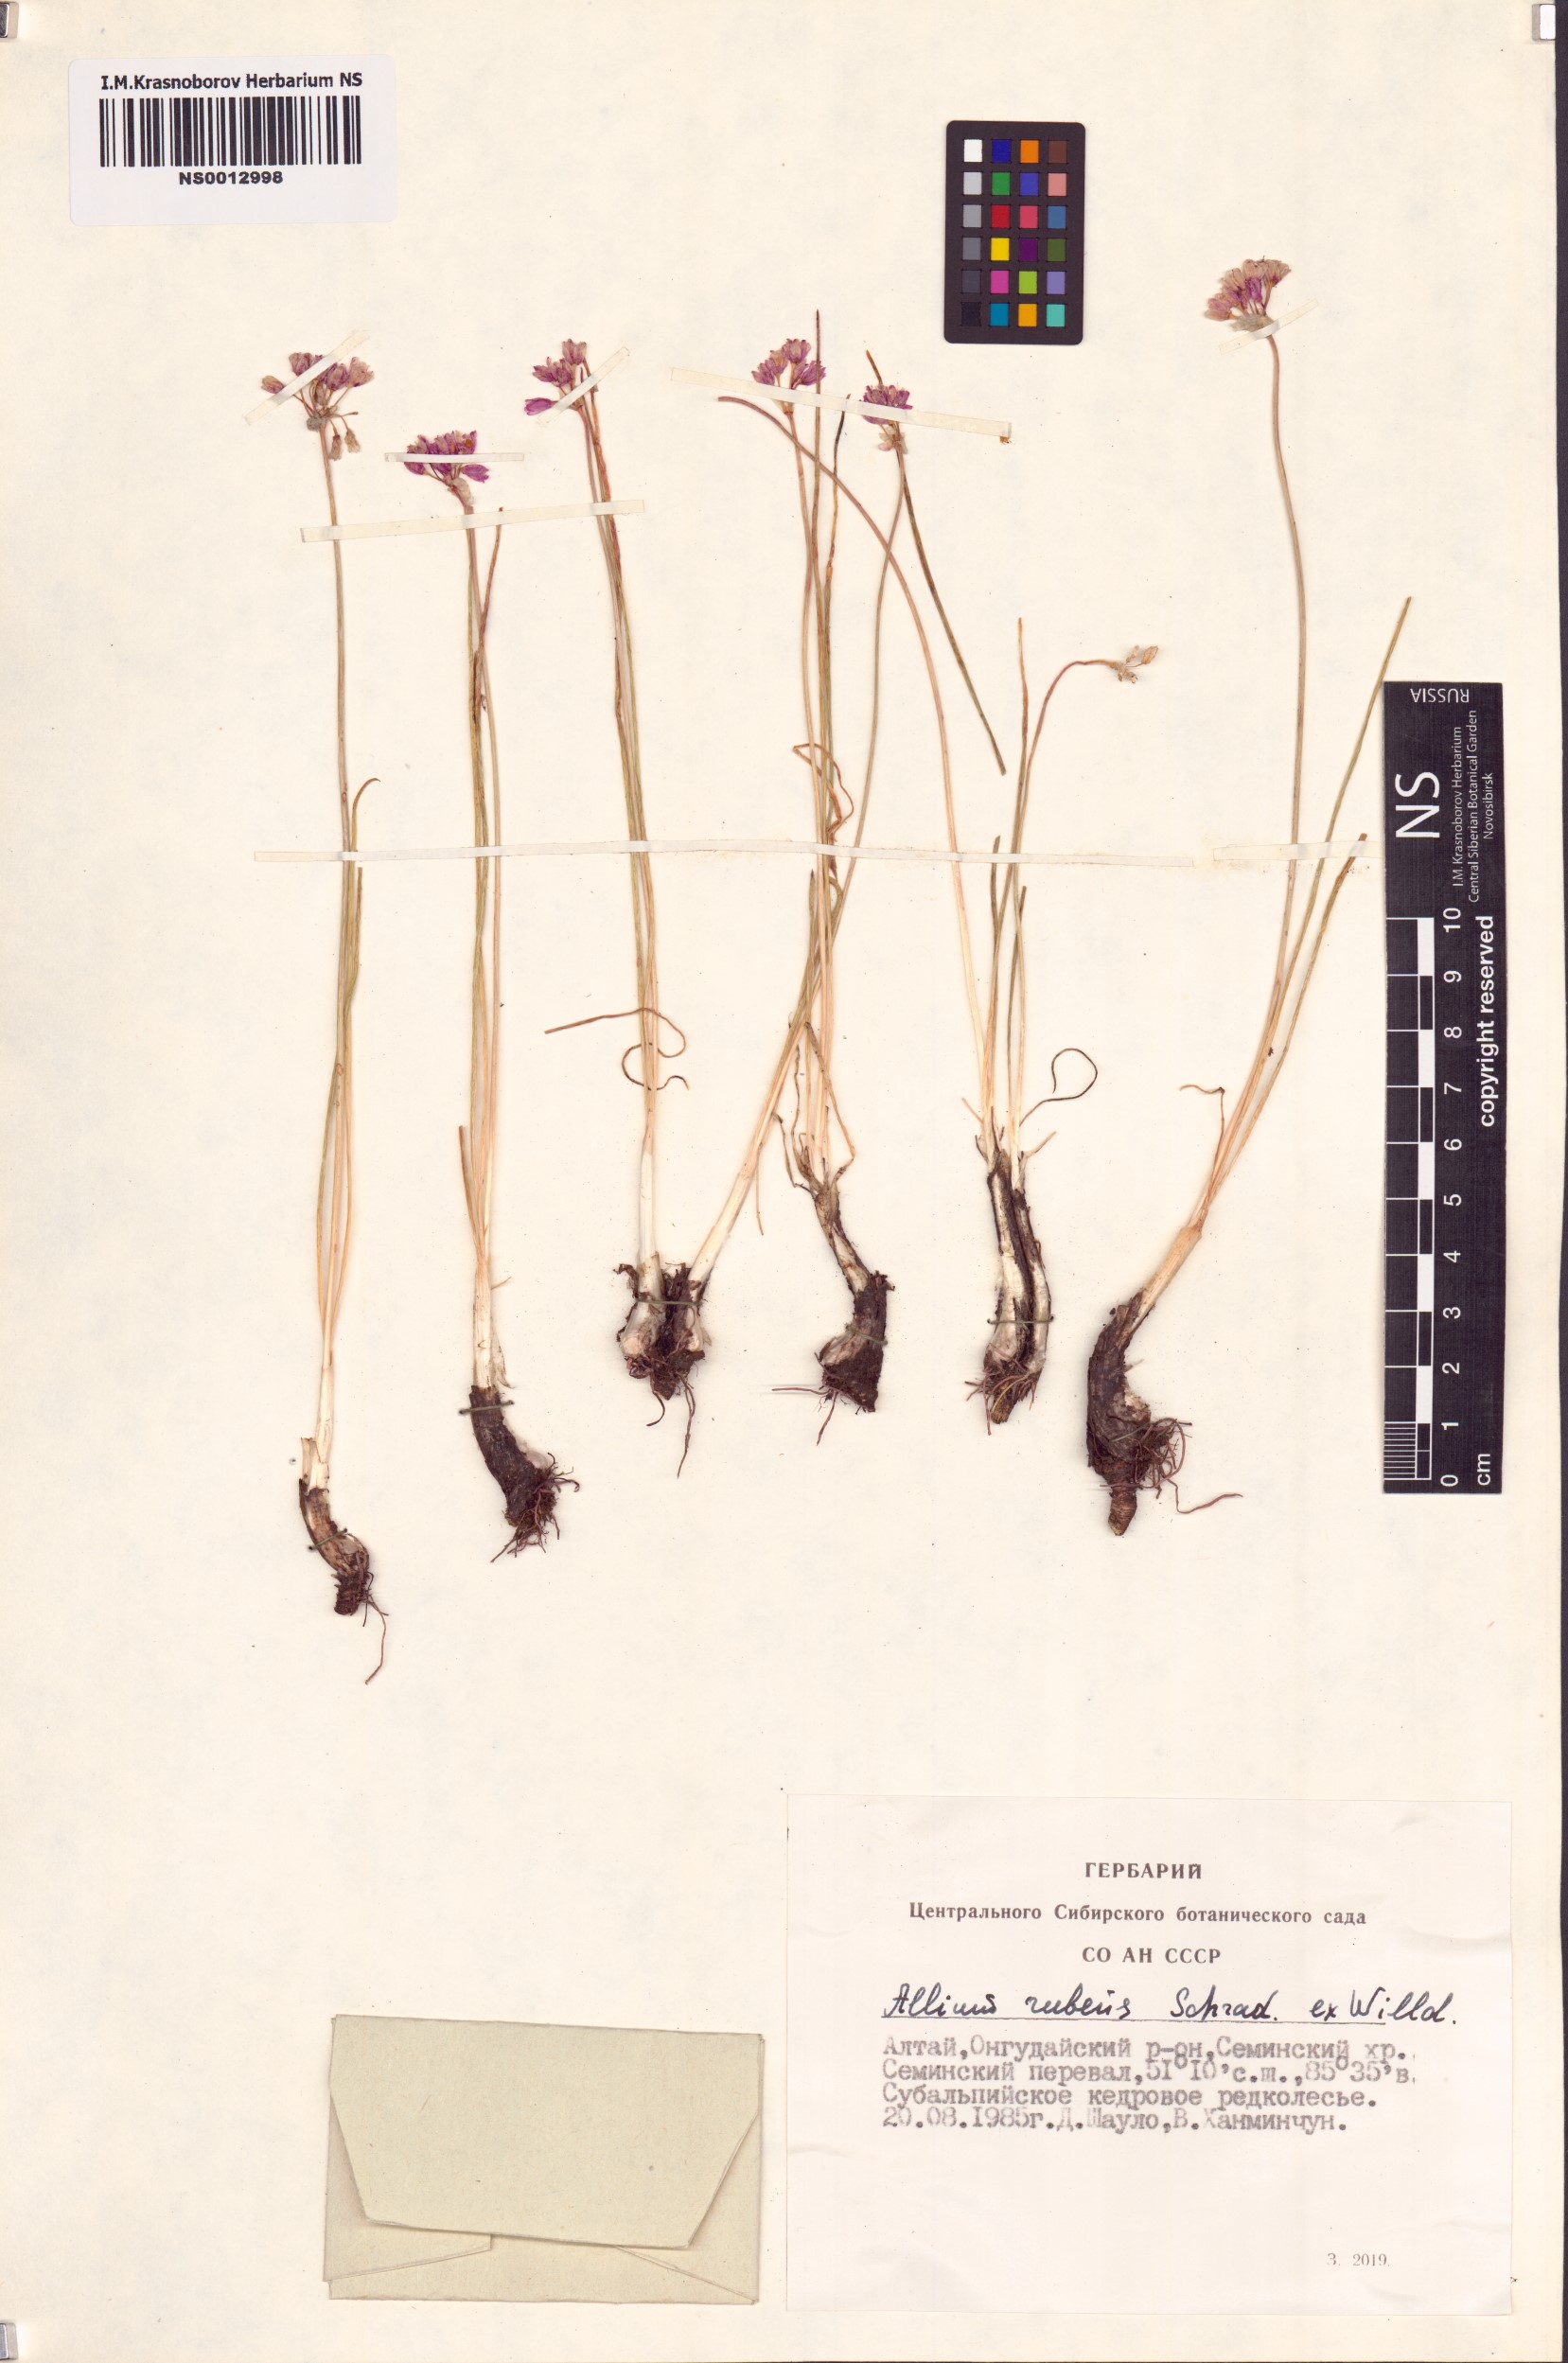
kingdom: Plantae
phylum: Tracheophyta
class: Liliopsida
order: Asparagales
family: Amaryllidaceae
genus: Allium
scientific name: Allium rubens
